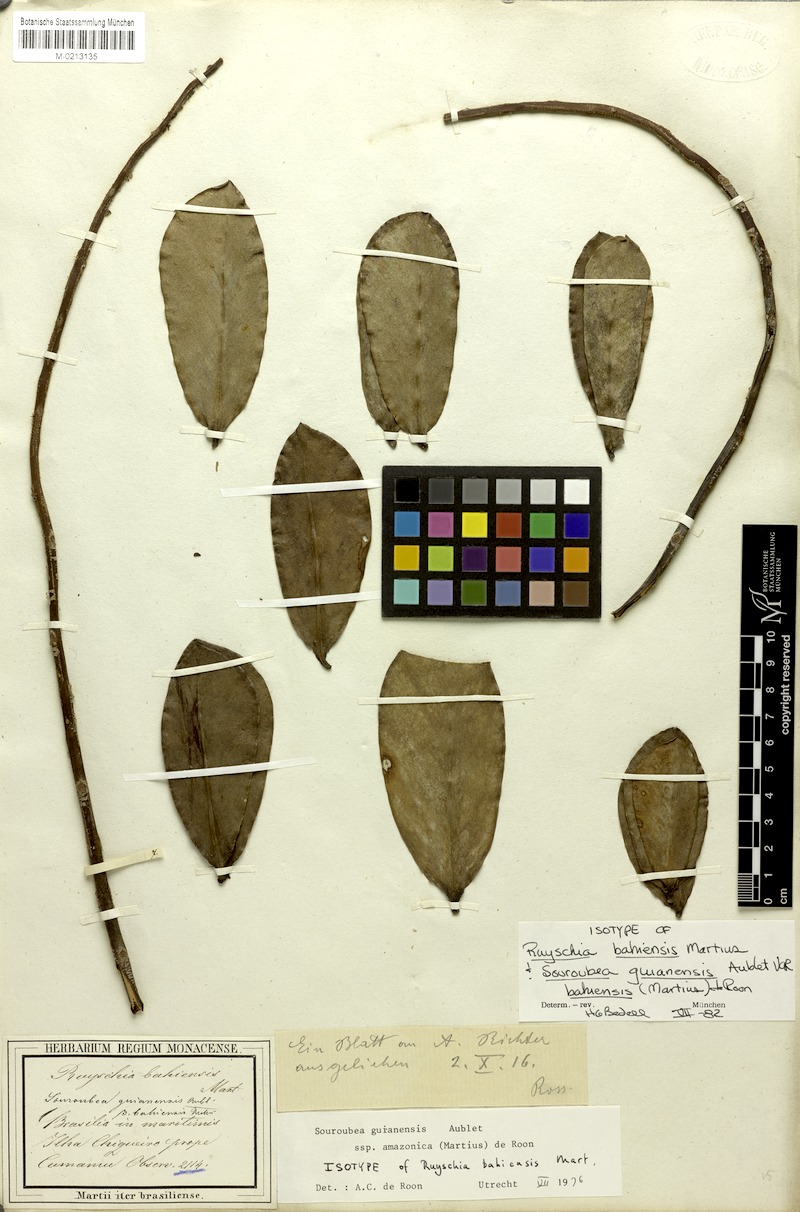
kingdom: Plantae
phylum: Tracheophyta
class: Magnoliopsida
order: Ericales
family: Marcgraviaceae
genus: Souroubea
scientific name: Souroubea guianensis
